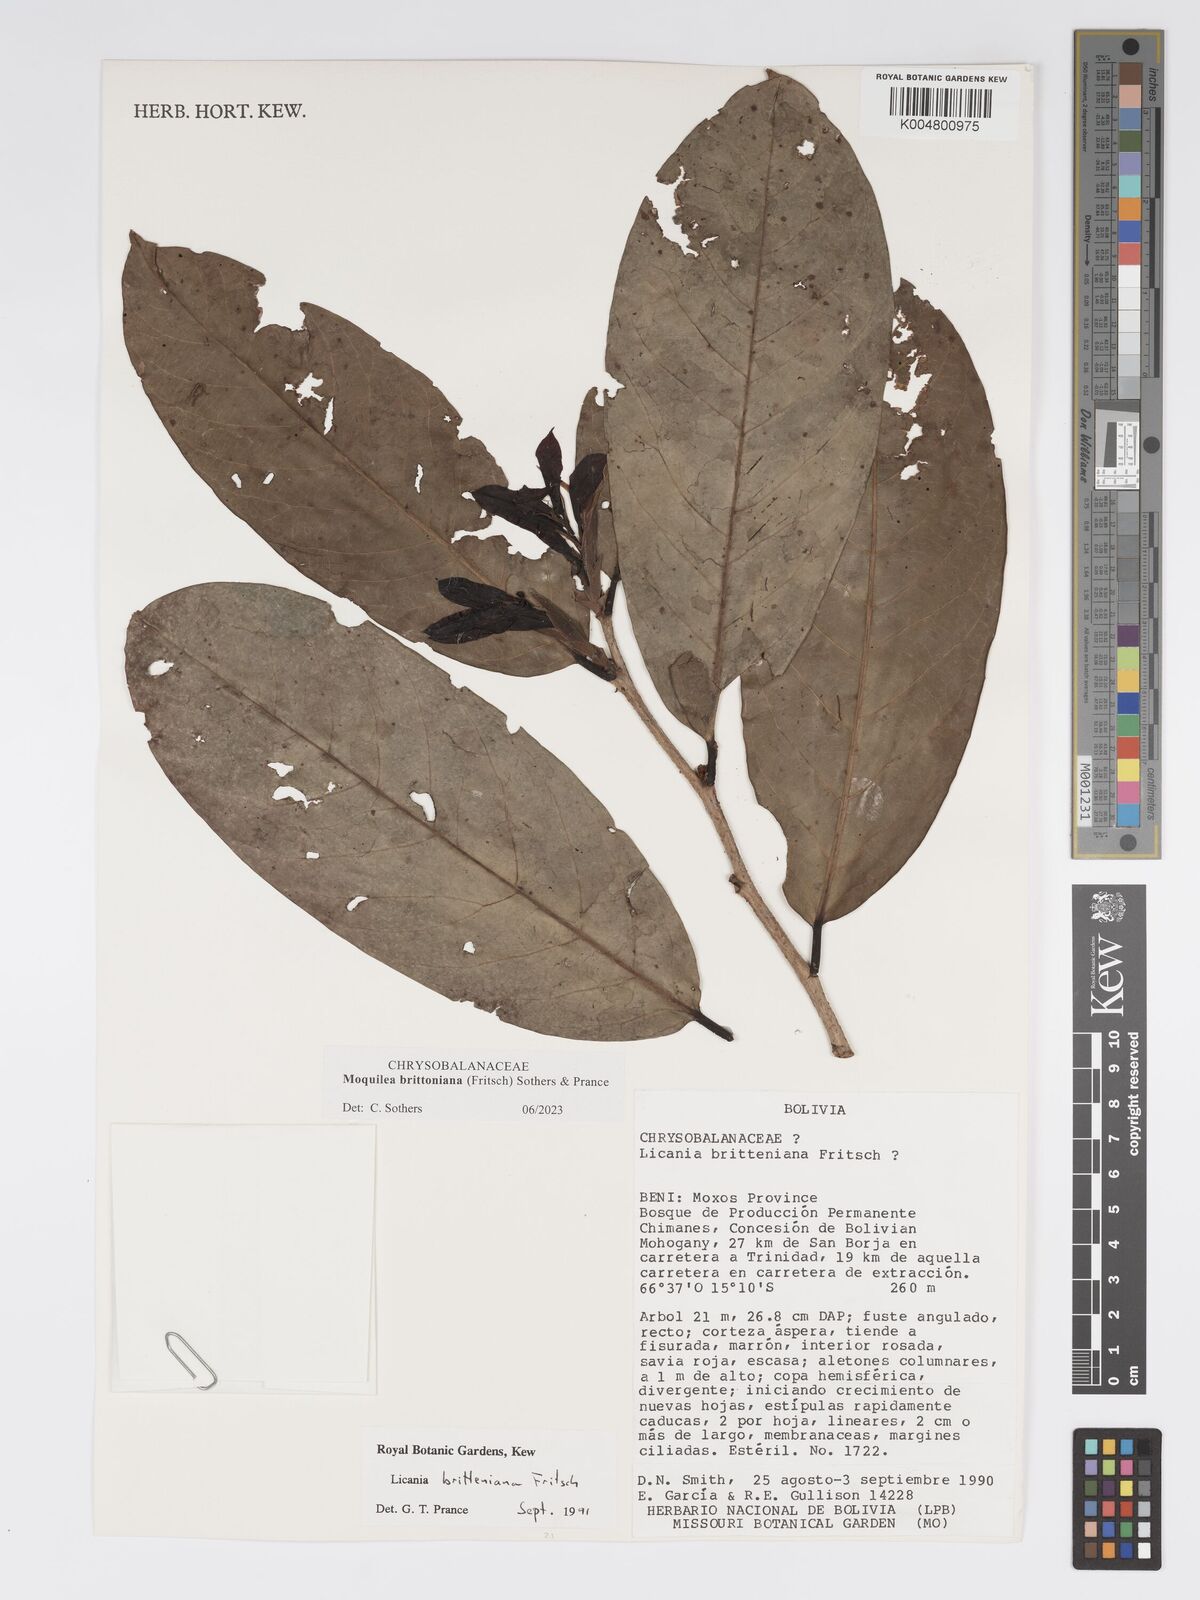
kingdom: Plantae
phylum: Tracheophyta
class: Magnoliopsida
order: Malpighiales
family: Chrysobalanaceae
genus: Moquilea
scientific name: Moquilea brittoniana
